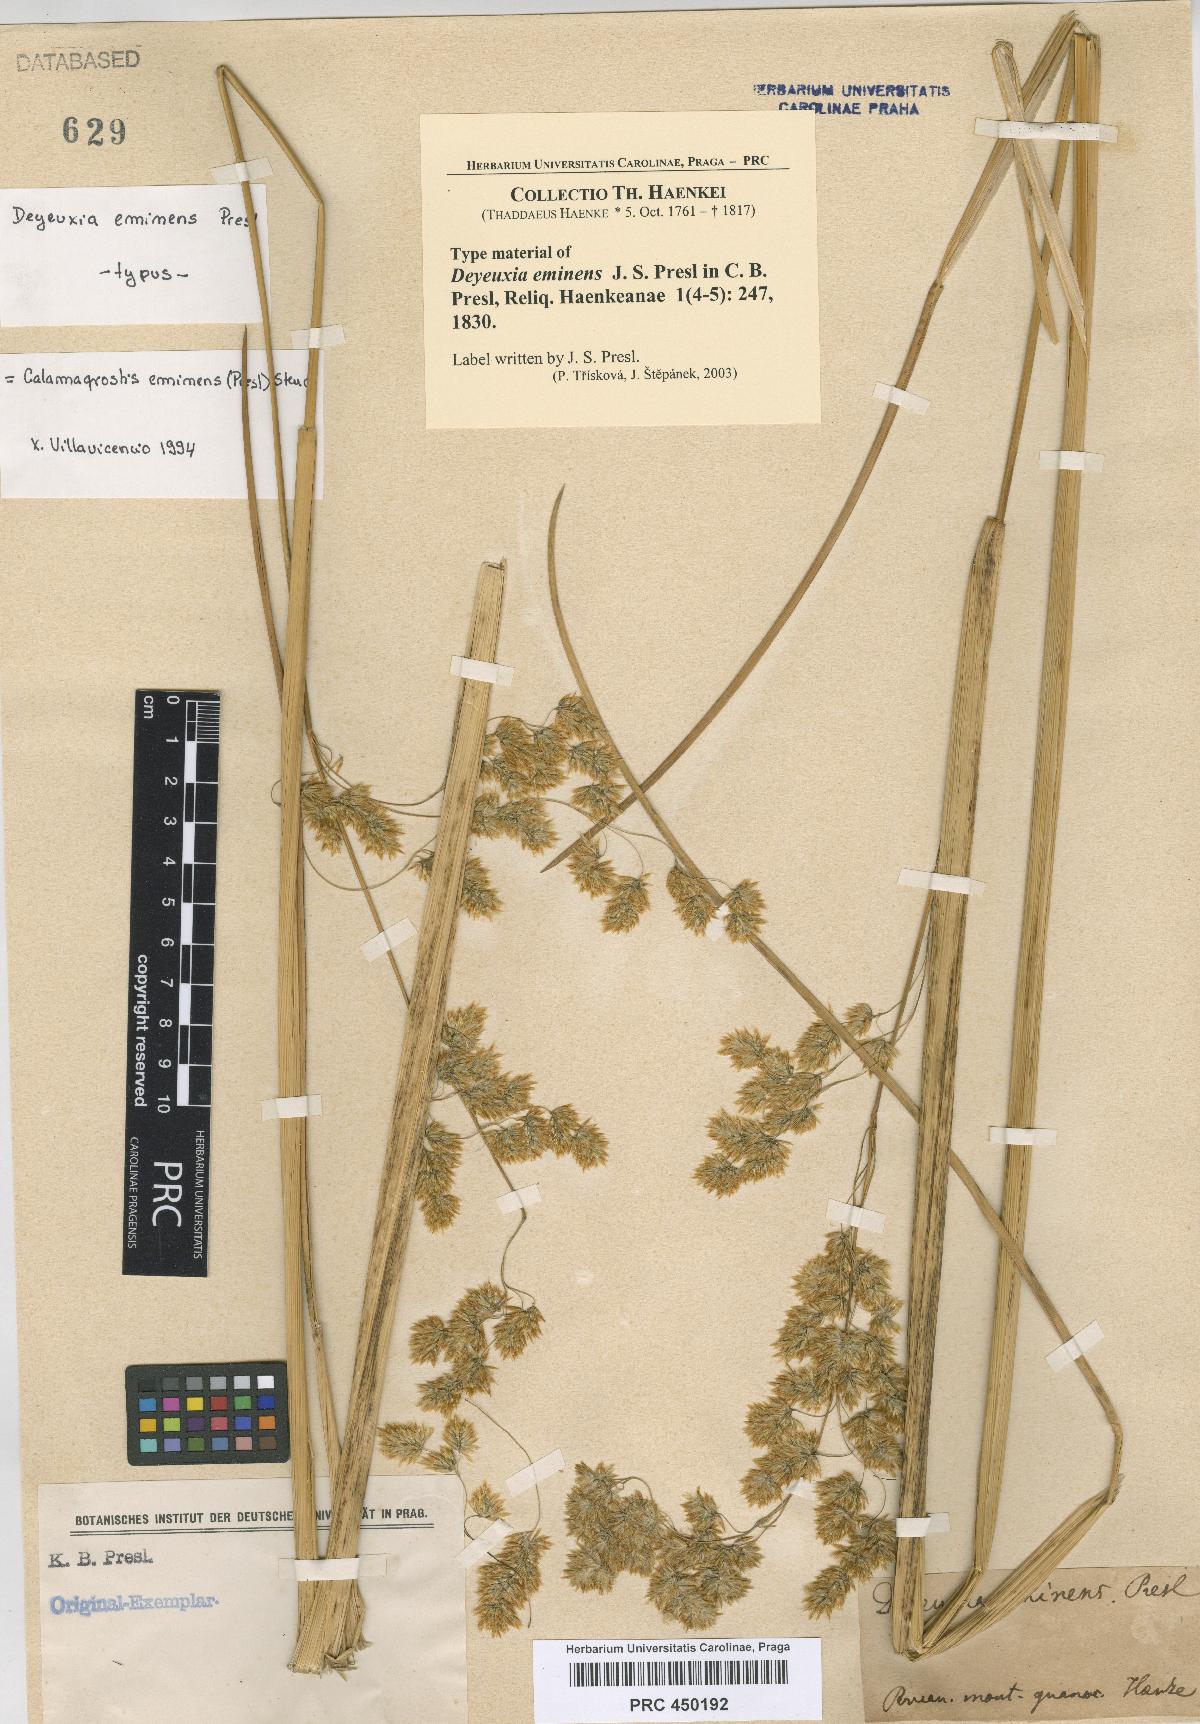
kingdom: Plantae
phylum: Tracheophyta
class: Liliopsida
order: Poales
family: Poaceae
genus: Deschampsia
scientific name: Deschampsia eminens
